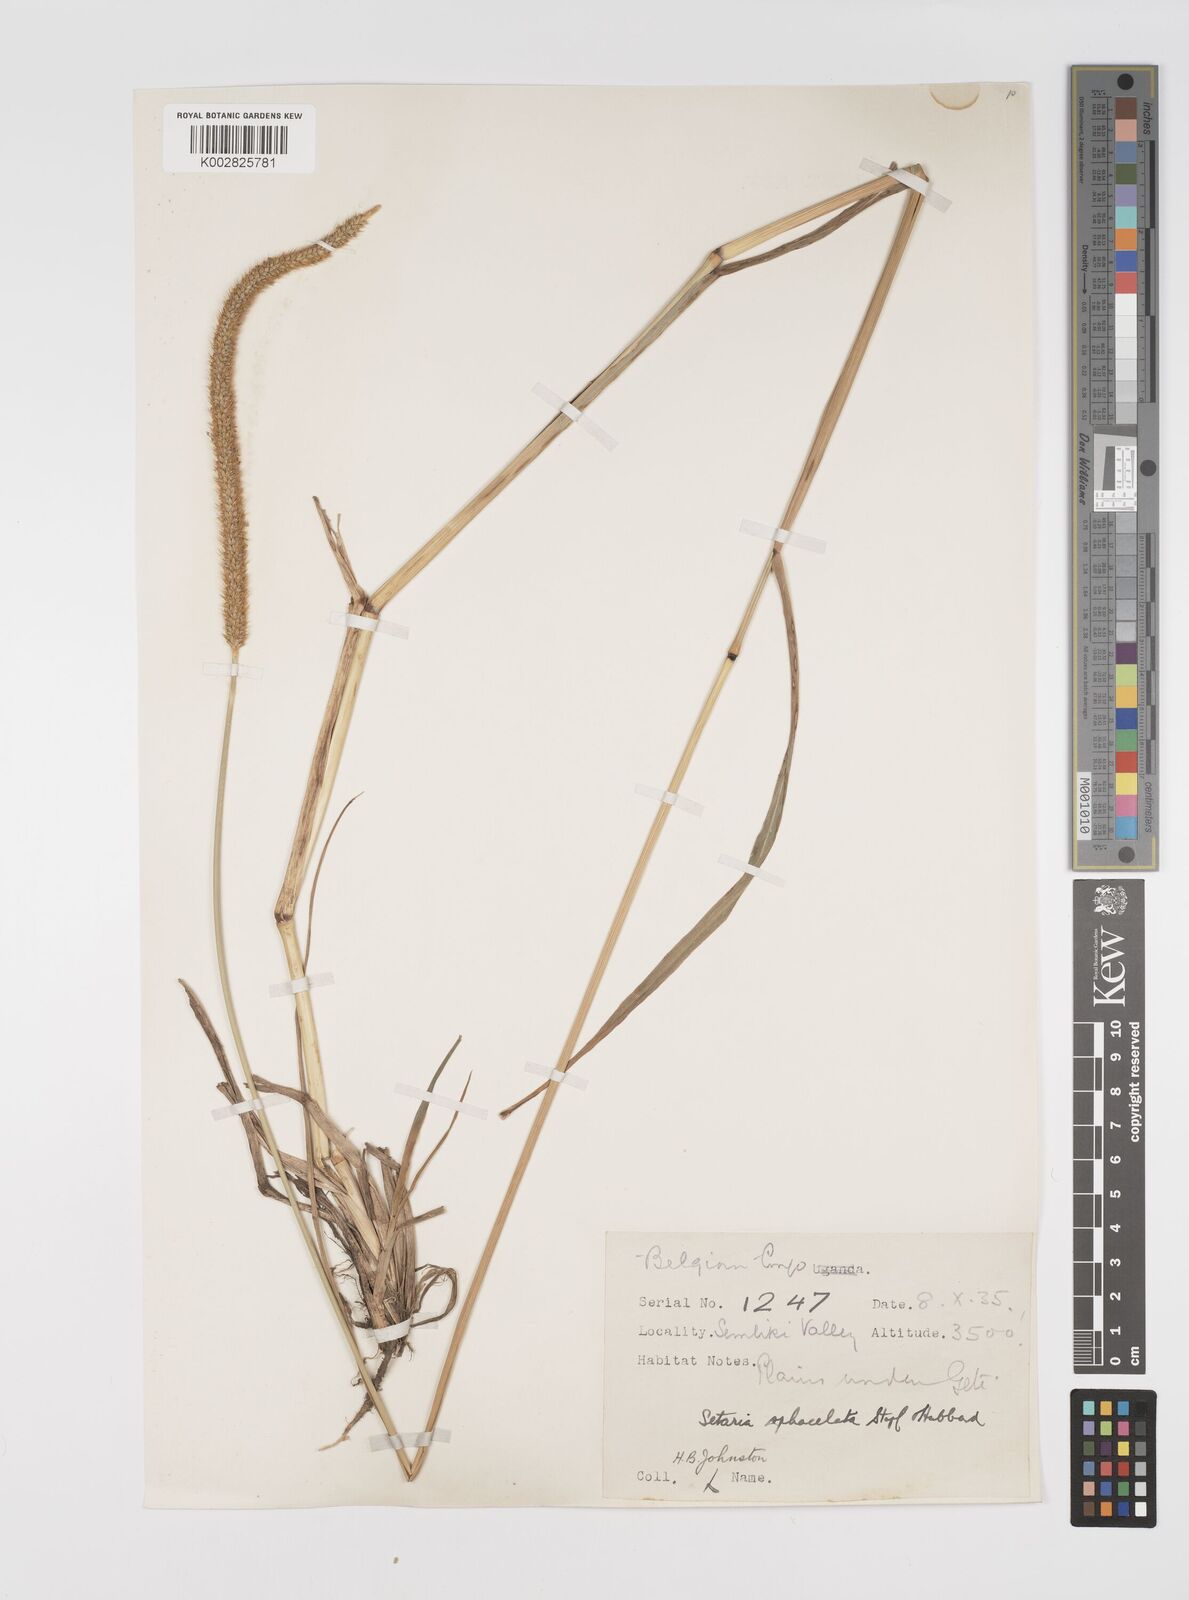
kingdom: Plantae
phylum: Tracheophyta
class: Liliopsida
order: Poales
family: Poaceae
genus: Setaria
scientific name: Setaria sphacelata
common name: African bristlegrass
